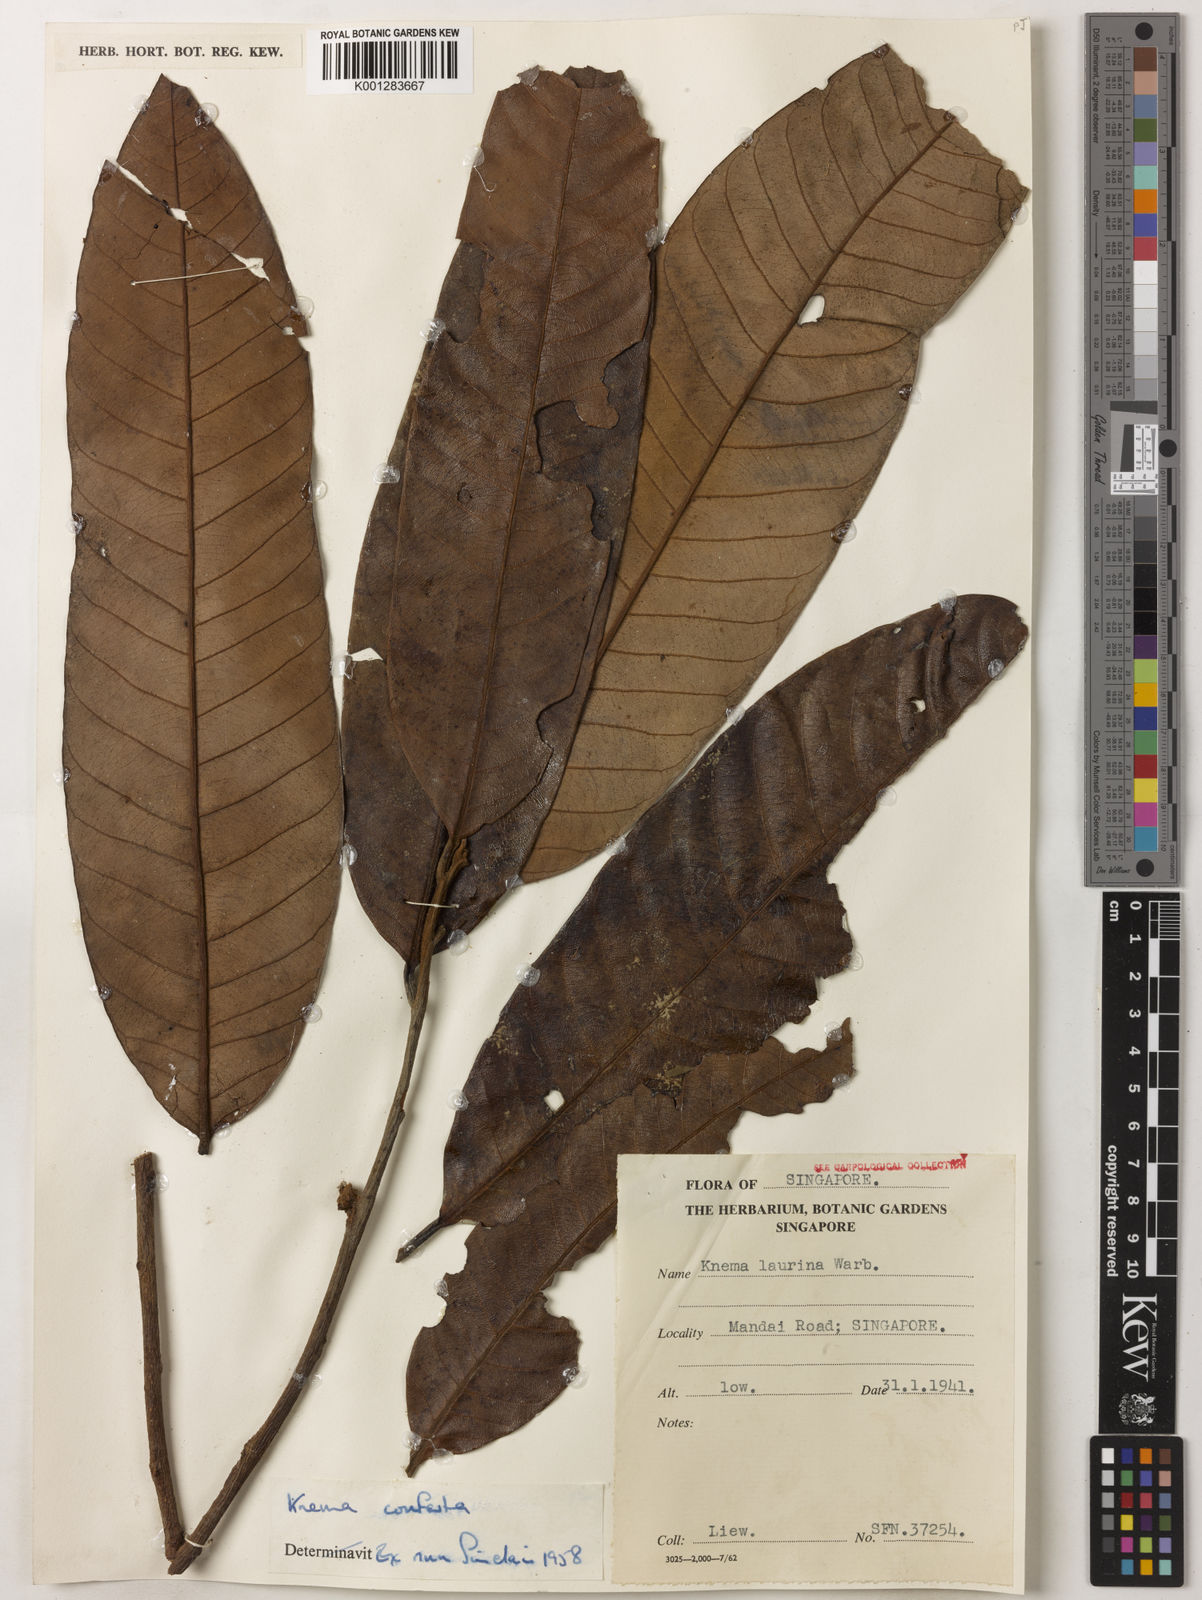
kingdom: Plantae
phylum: Tracheophyta
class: Magnoliopsida
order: Magnoliales
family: Myristicaceae
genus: Knema
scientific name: Knema conferta
